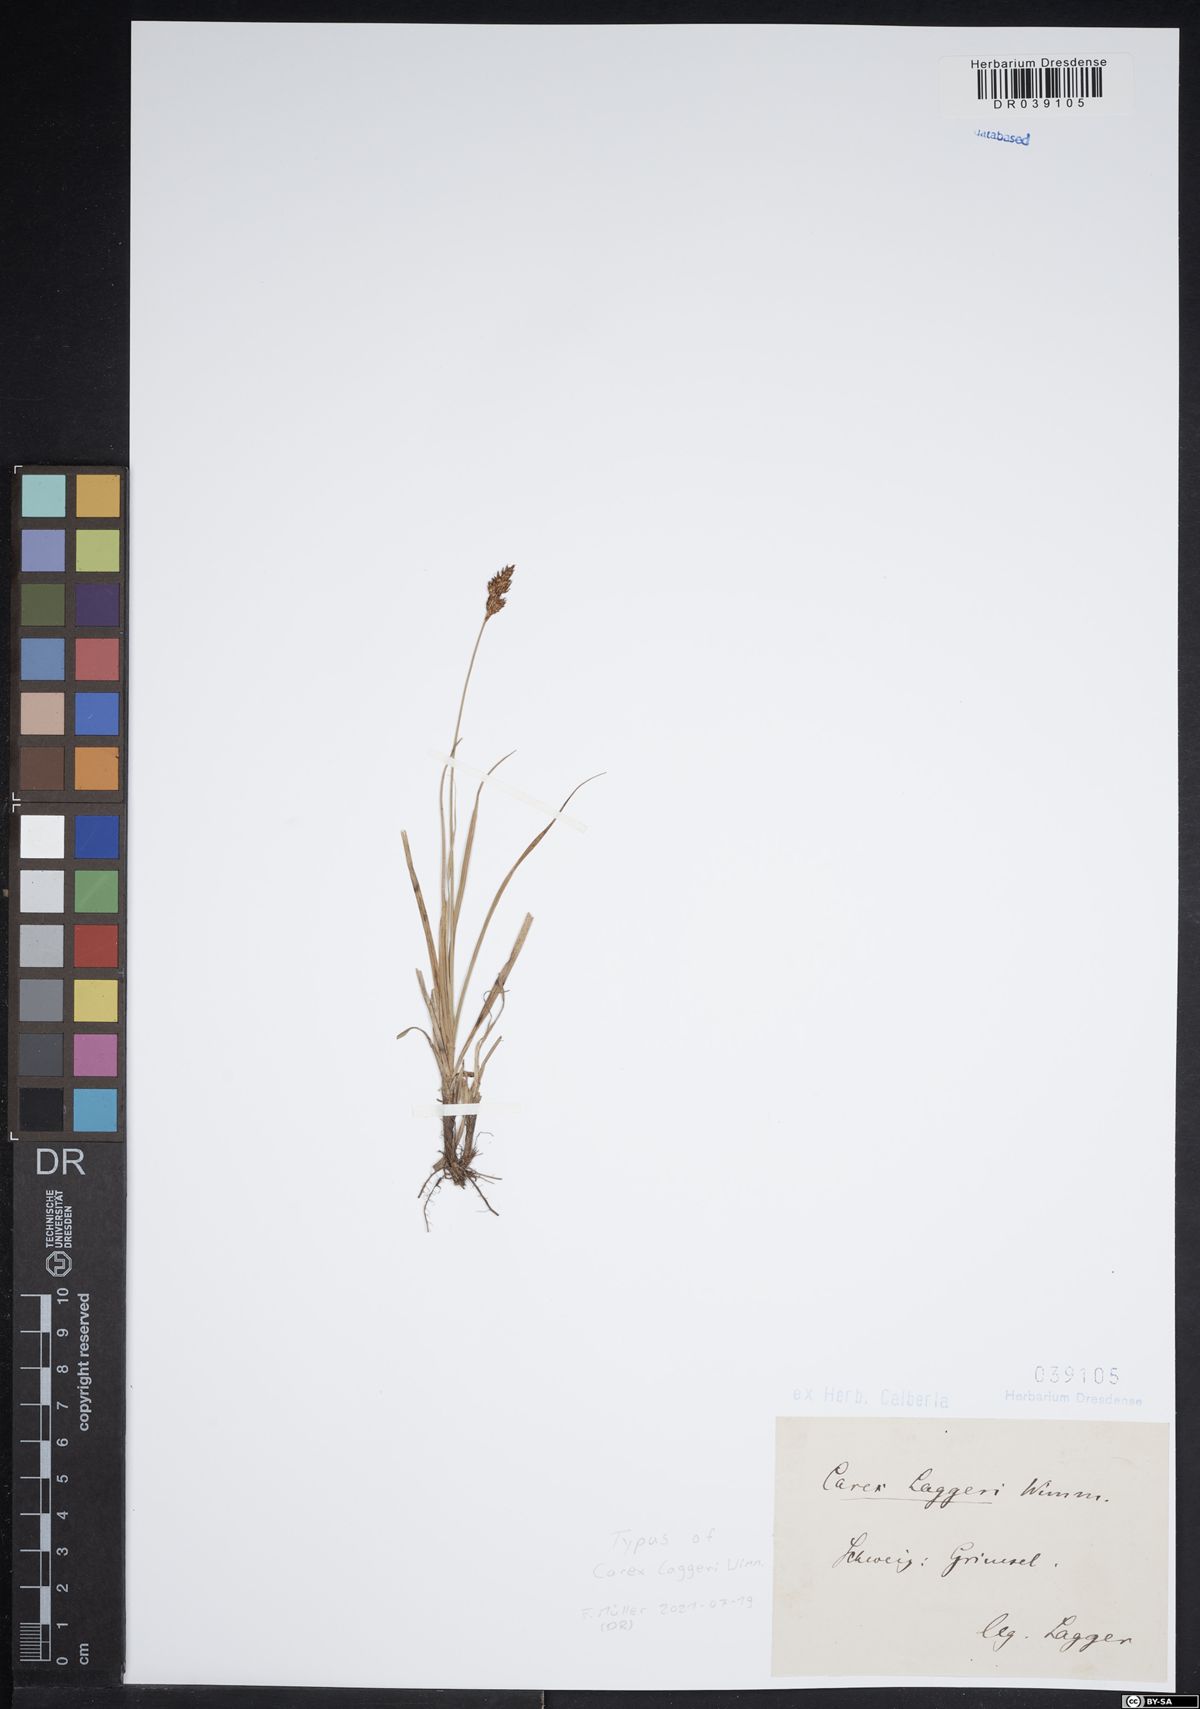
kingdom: Plantae
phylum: Tracheophyta
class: Liliopsida
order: Poales
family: Cyperaceae
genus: Carex
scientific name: Carex laggeri
